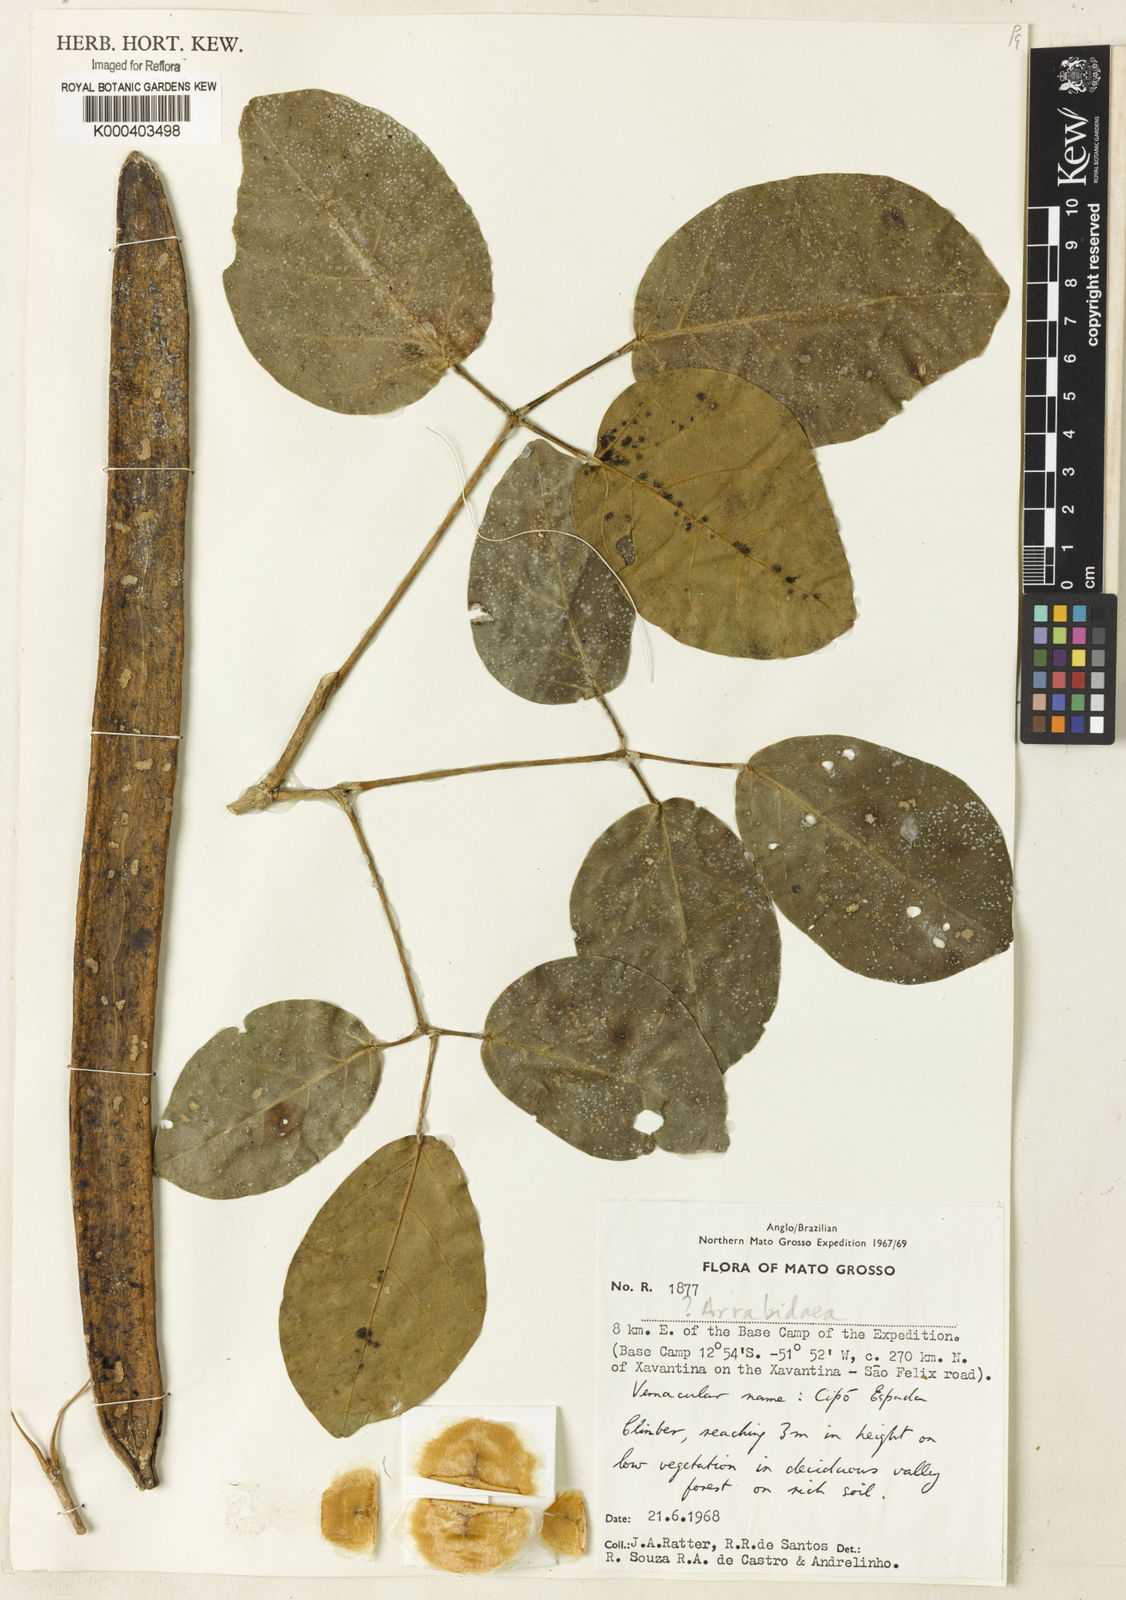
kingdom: Plantae
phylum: Tracheophyta
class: Magnoliopsida
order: Rosales
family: Rhamnaceae
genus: Arrabidaea
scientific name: Arrabidaea
